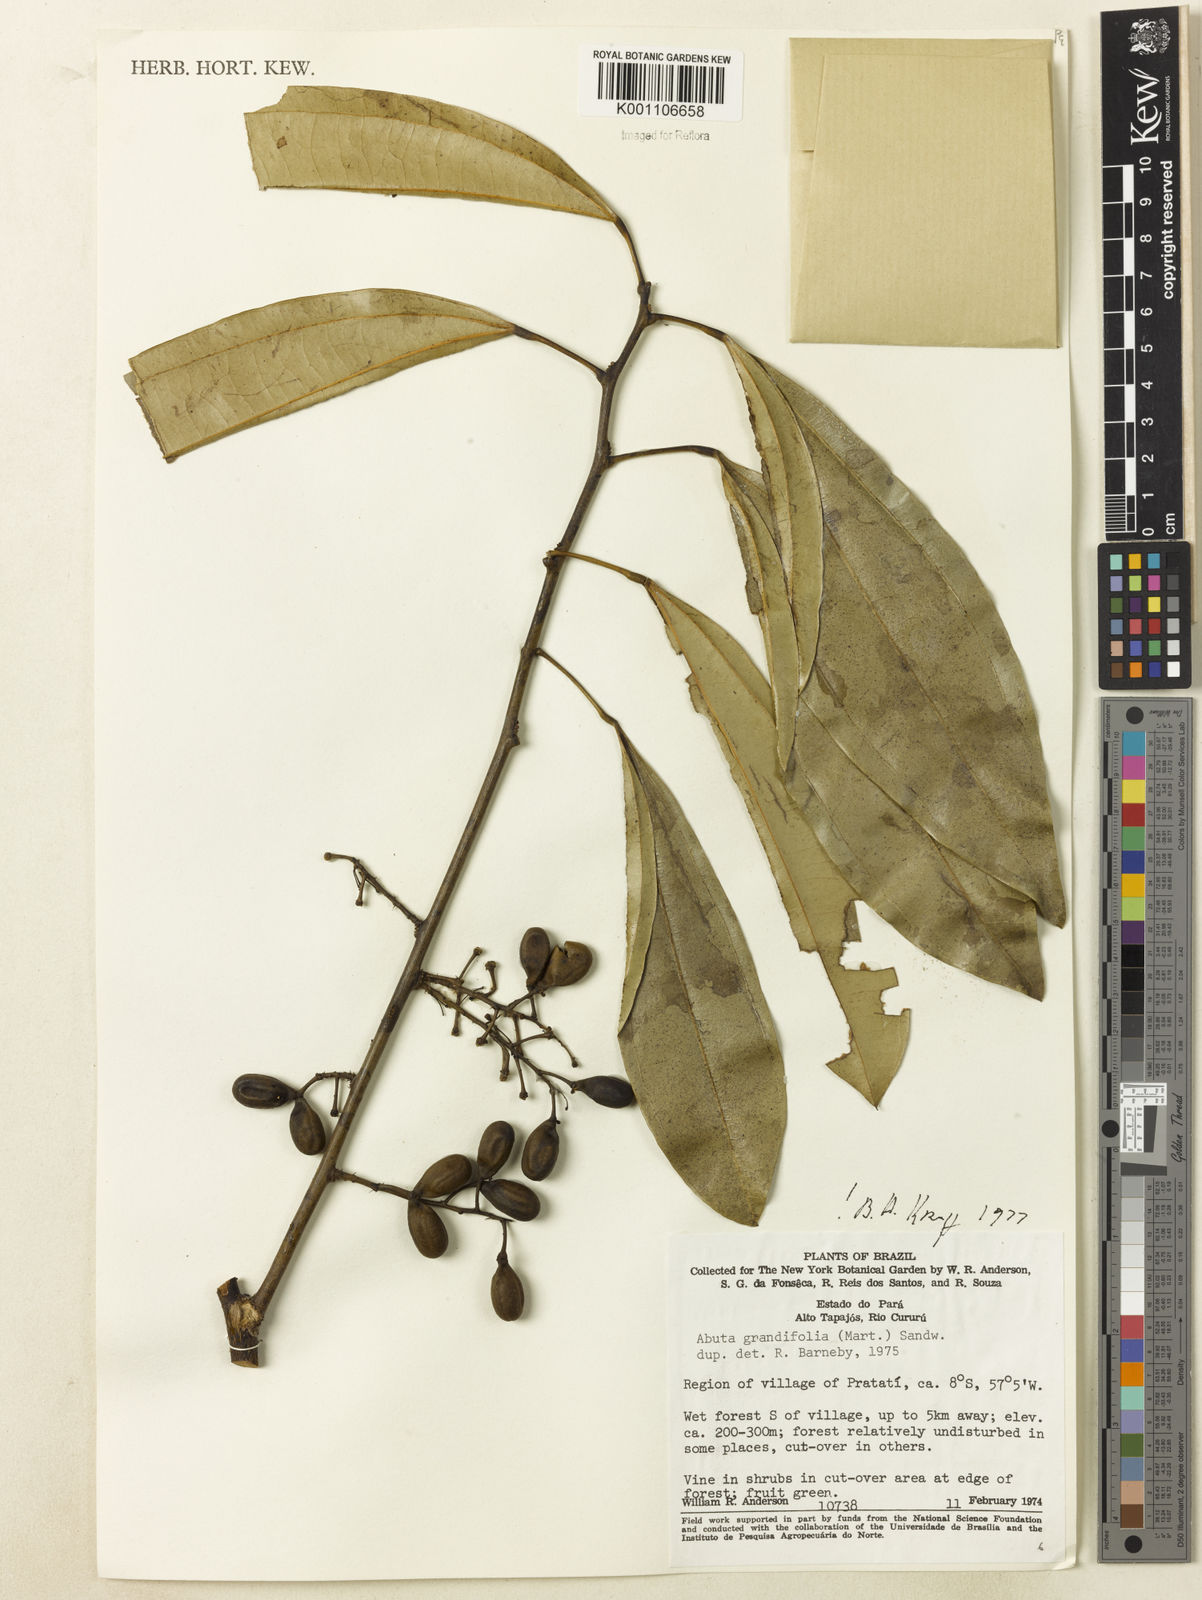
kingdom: Plantae
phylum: Tracheophyta
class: Magnoliopsida
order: Ranunculales
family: Menispermaceae
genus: Abuta
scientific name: Abuta grandifolia
